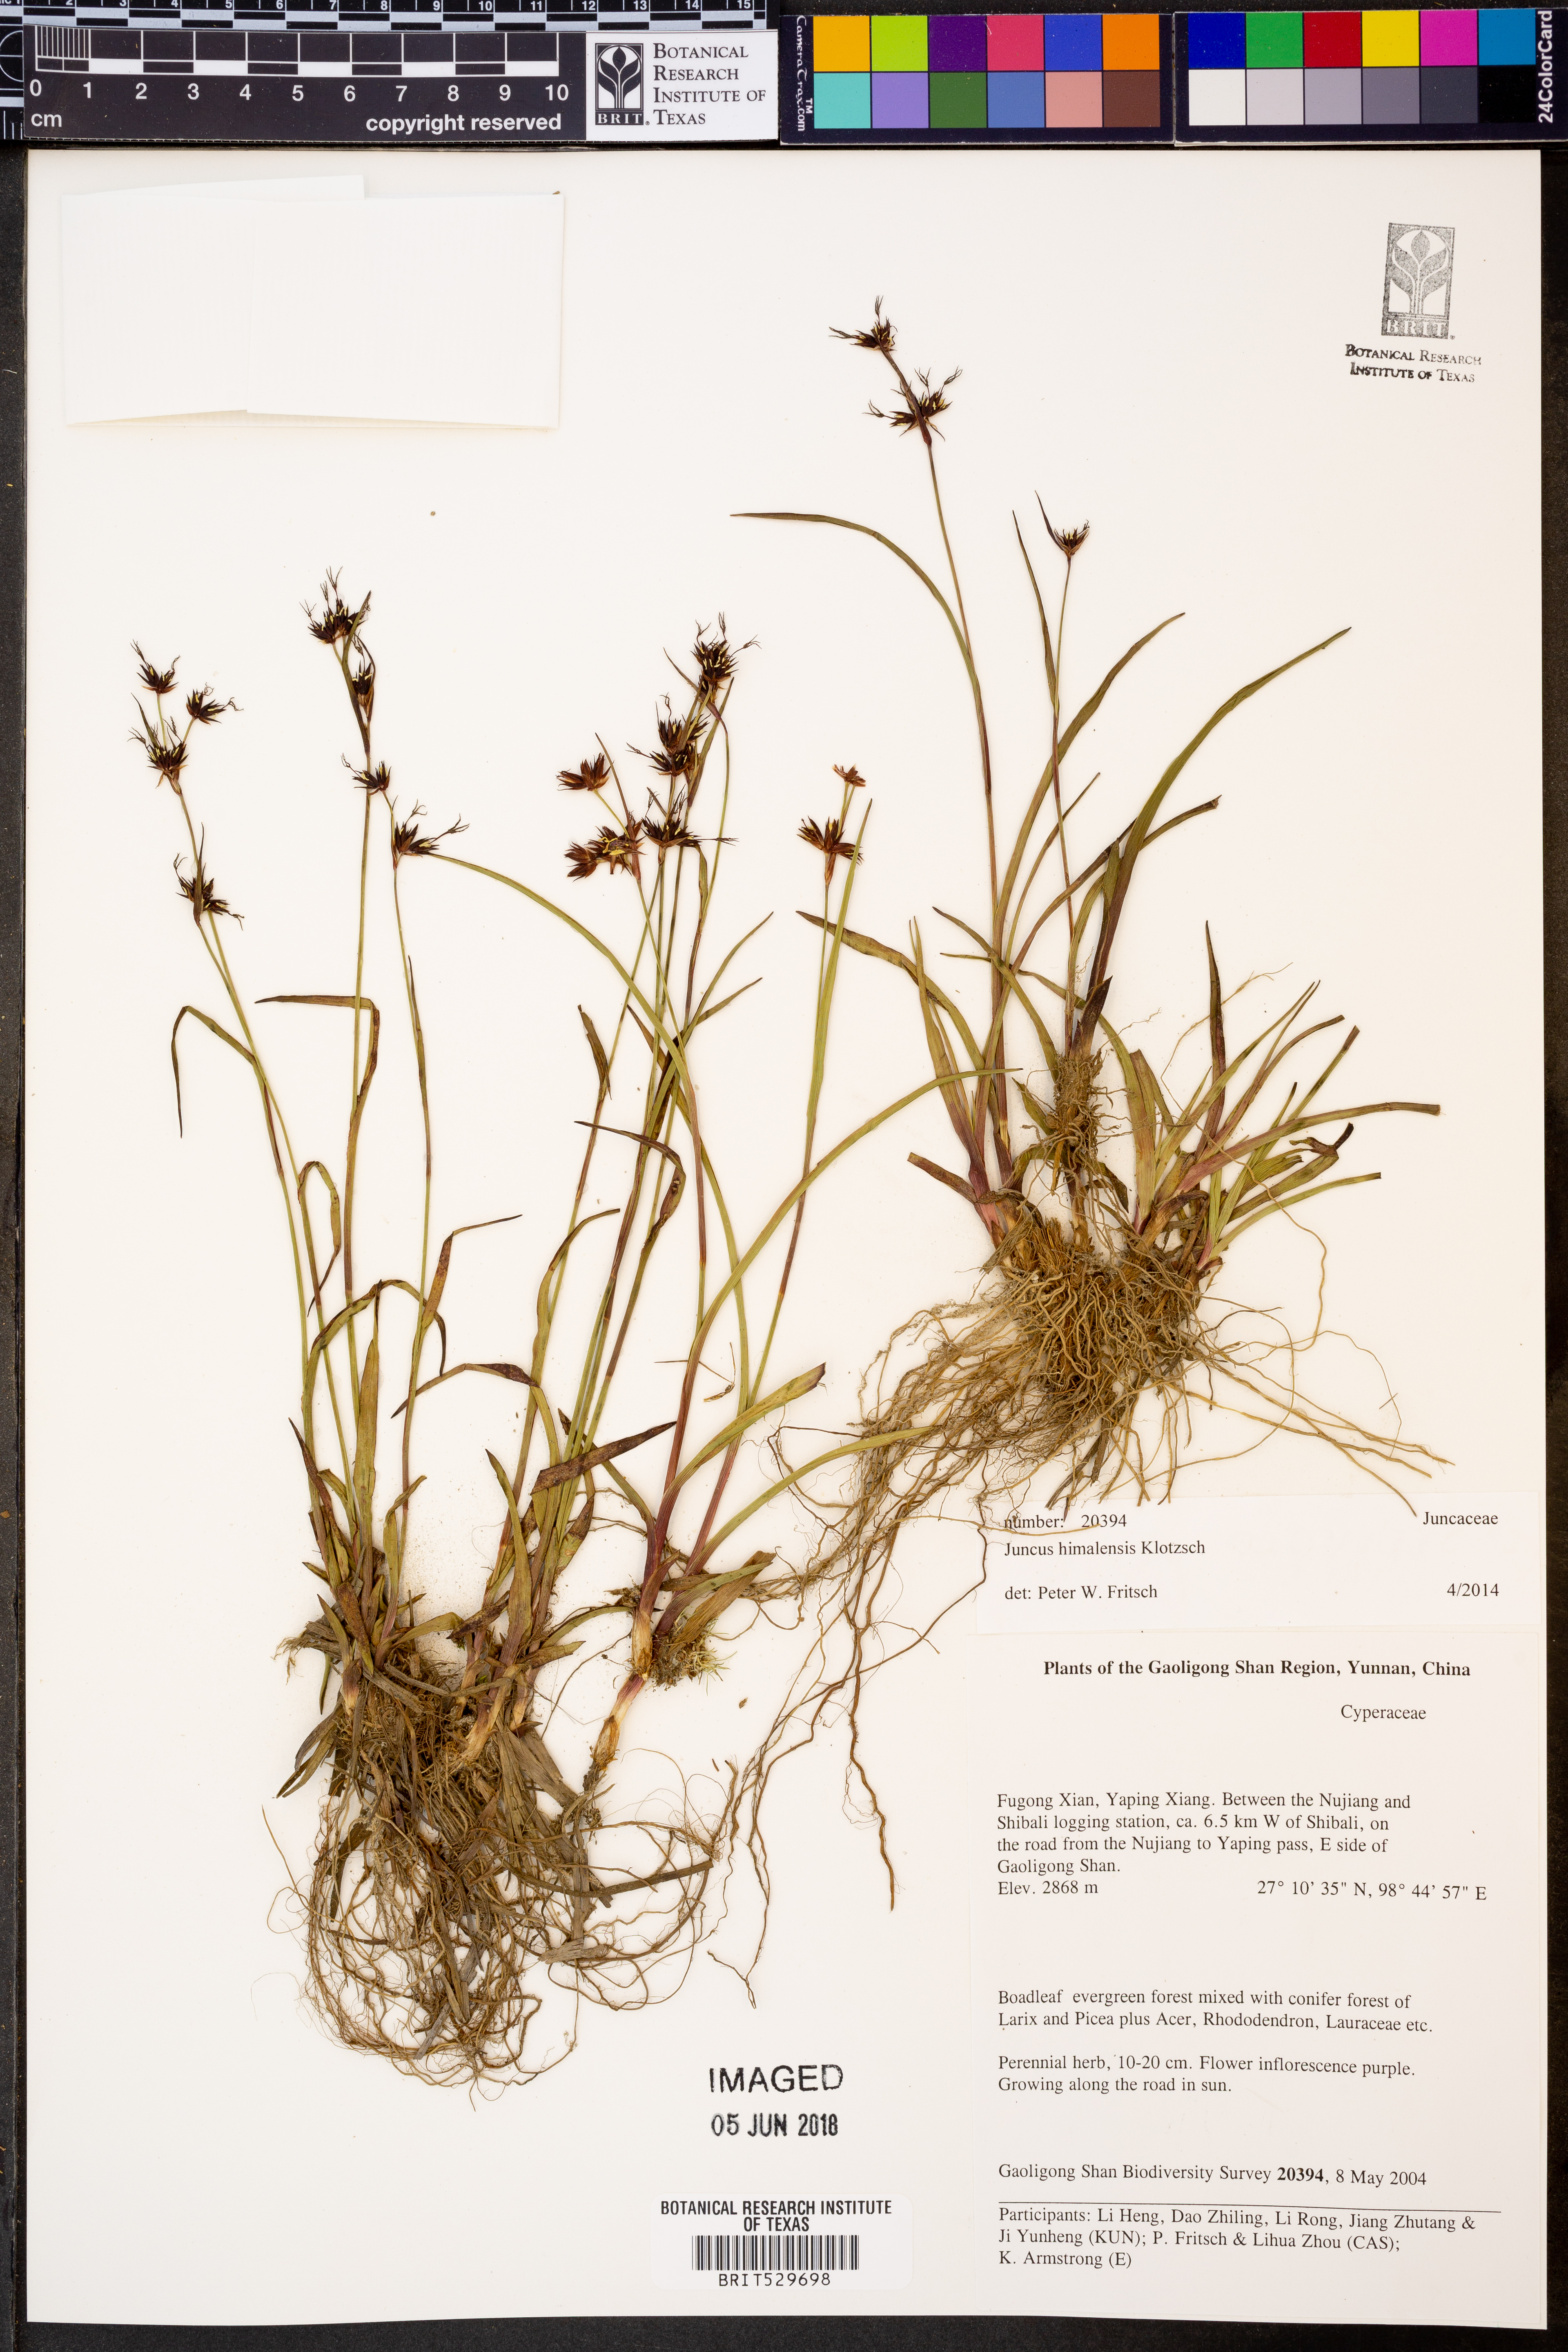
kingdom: Plantae
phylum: Tracheophyta
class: Liliopsida
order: Poales
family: Juncaceae
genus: Juncus
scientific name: Juncus himalensis
